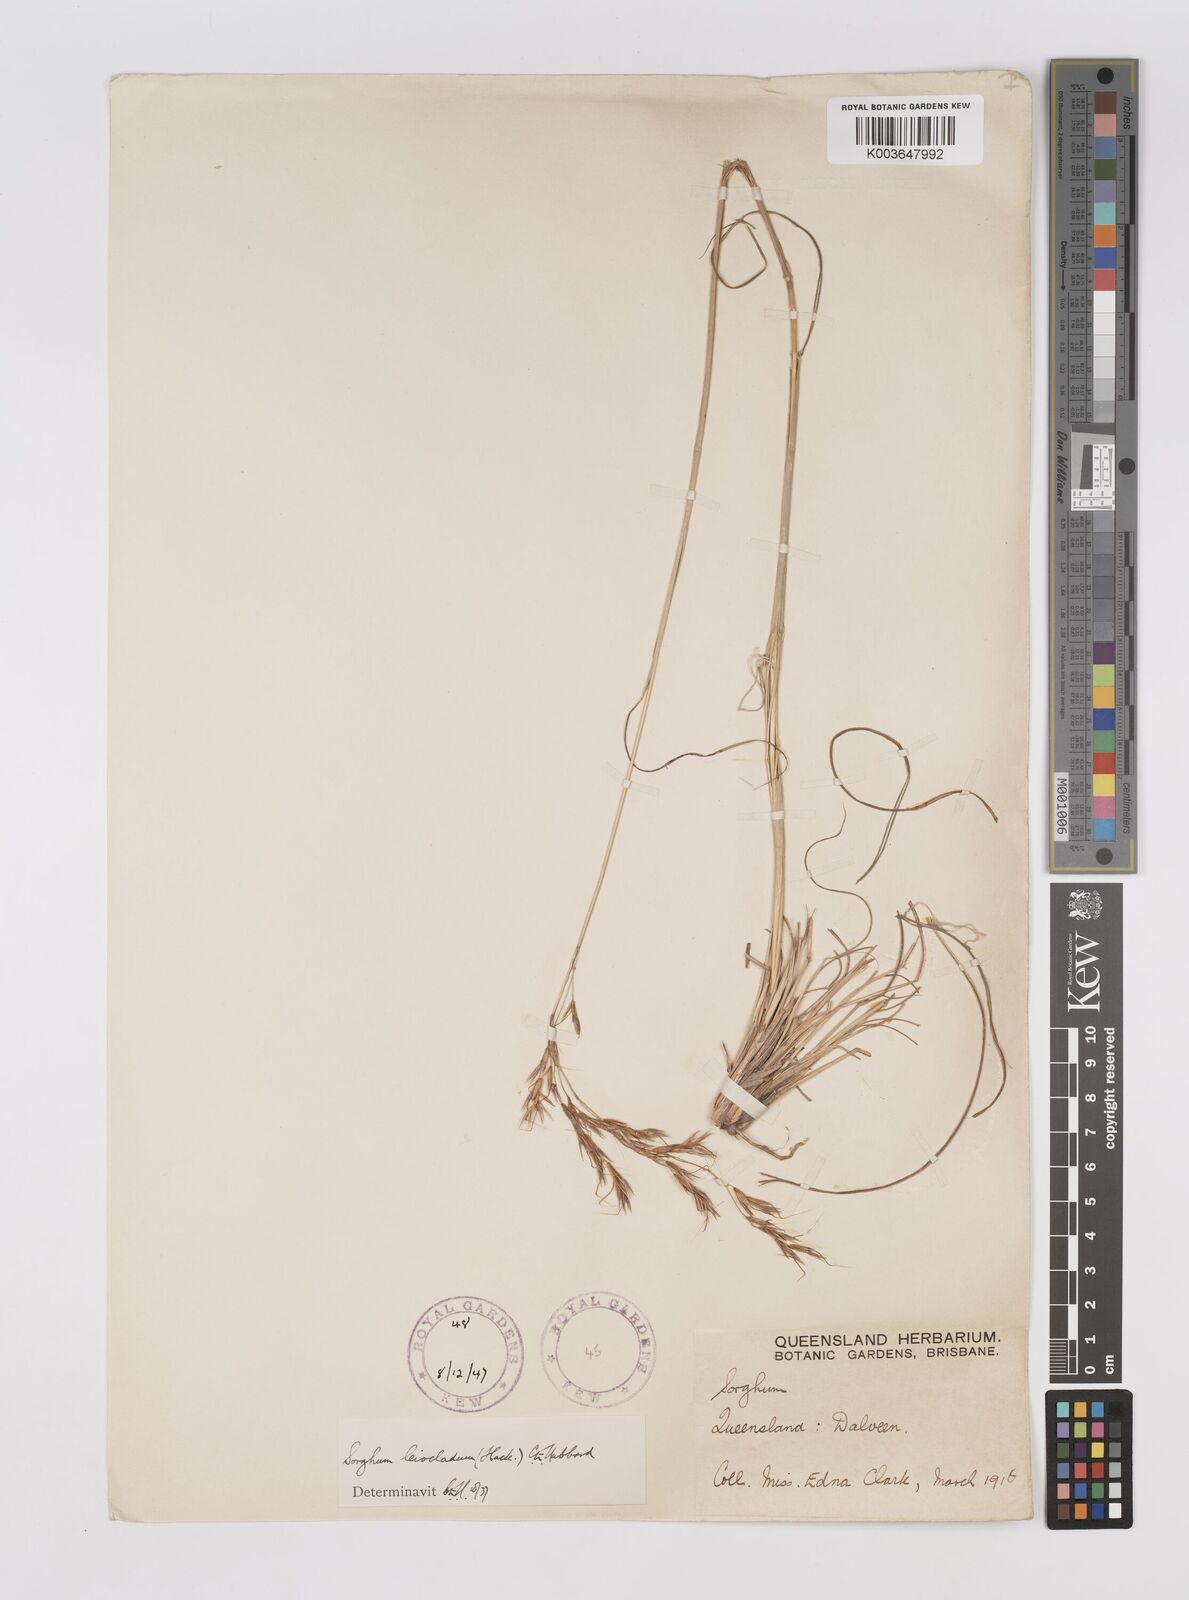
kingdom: Plantae
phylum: Tracheophyta
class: Liliopsida
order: Poales
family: Poaceae
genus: Sarga
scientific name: Sarga leioclada
